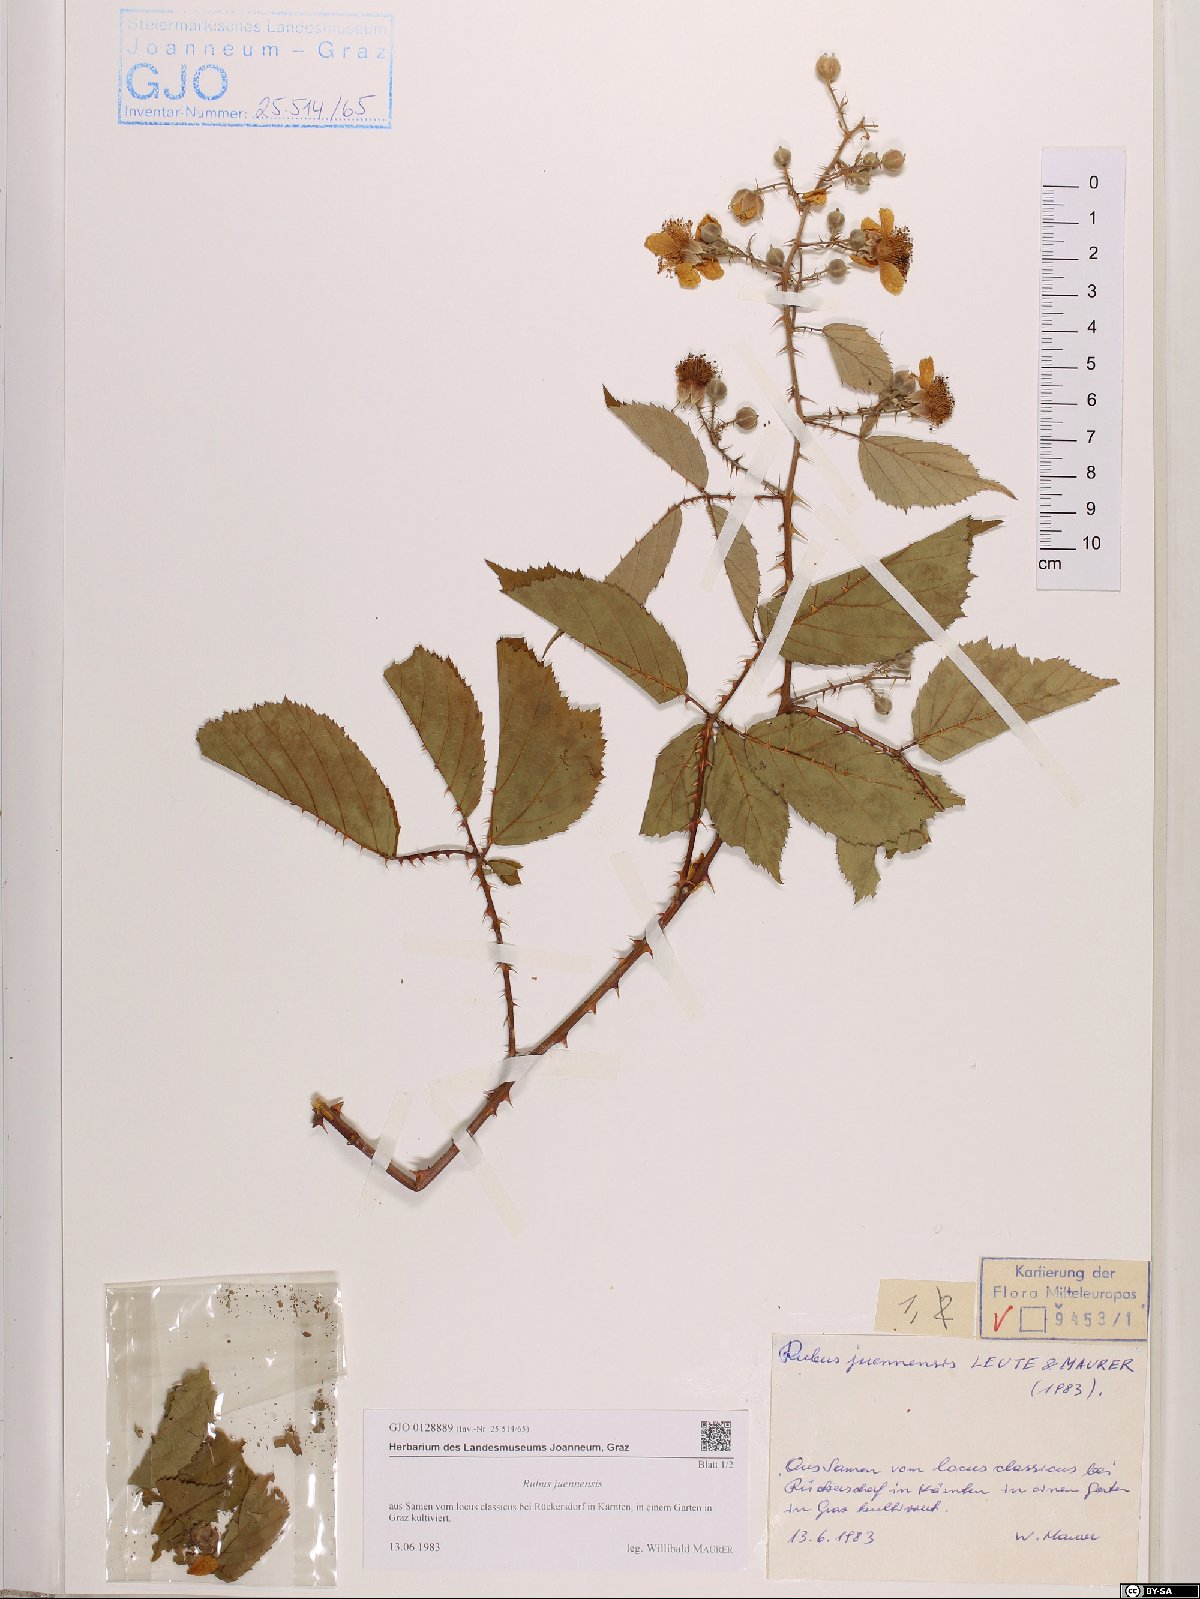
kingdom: Plantae
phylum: Tracheophyta
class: Magnoliopsida
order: Rosales
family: Rosaceae
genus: Rubus
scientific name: Rubus juennensis
